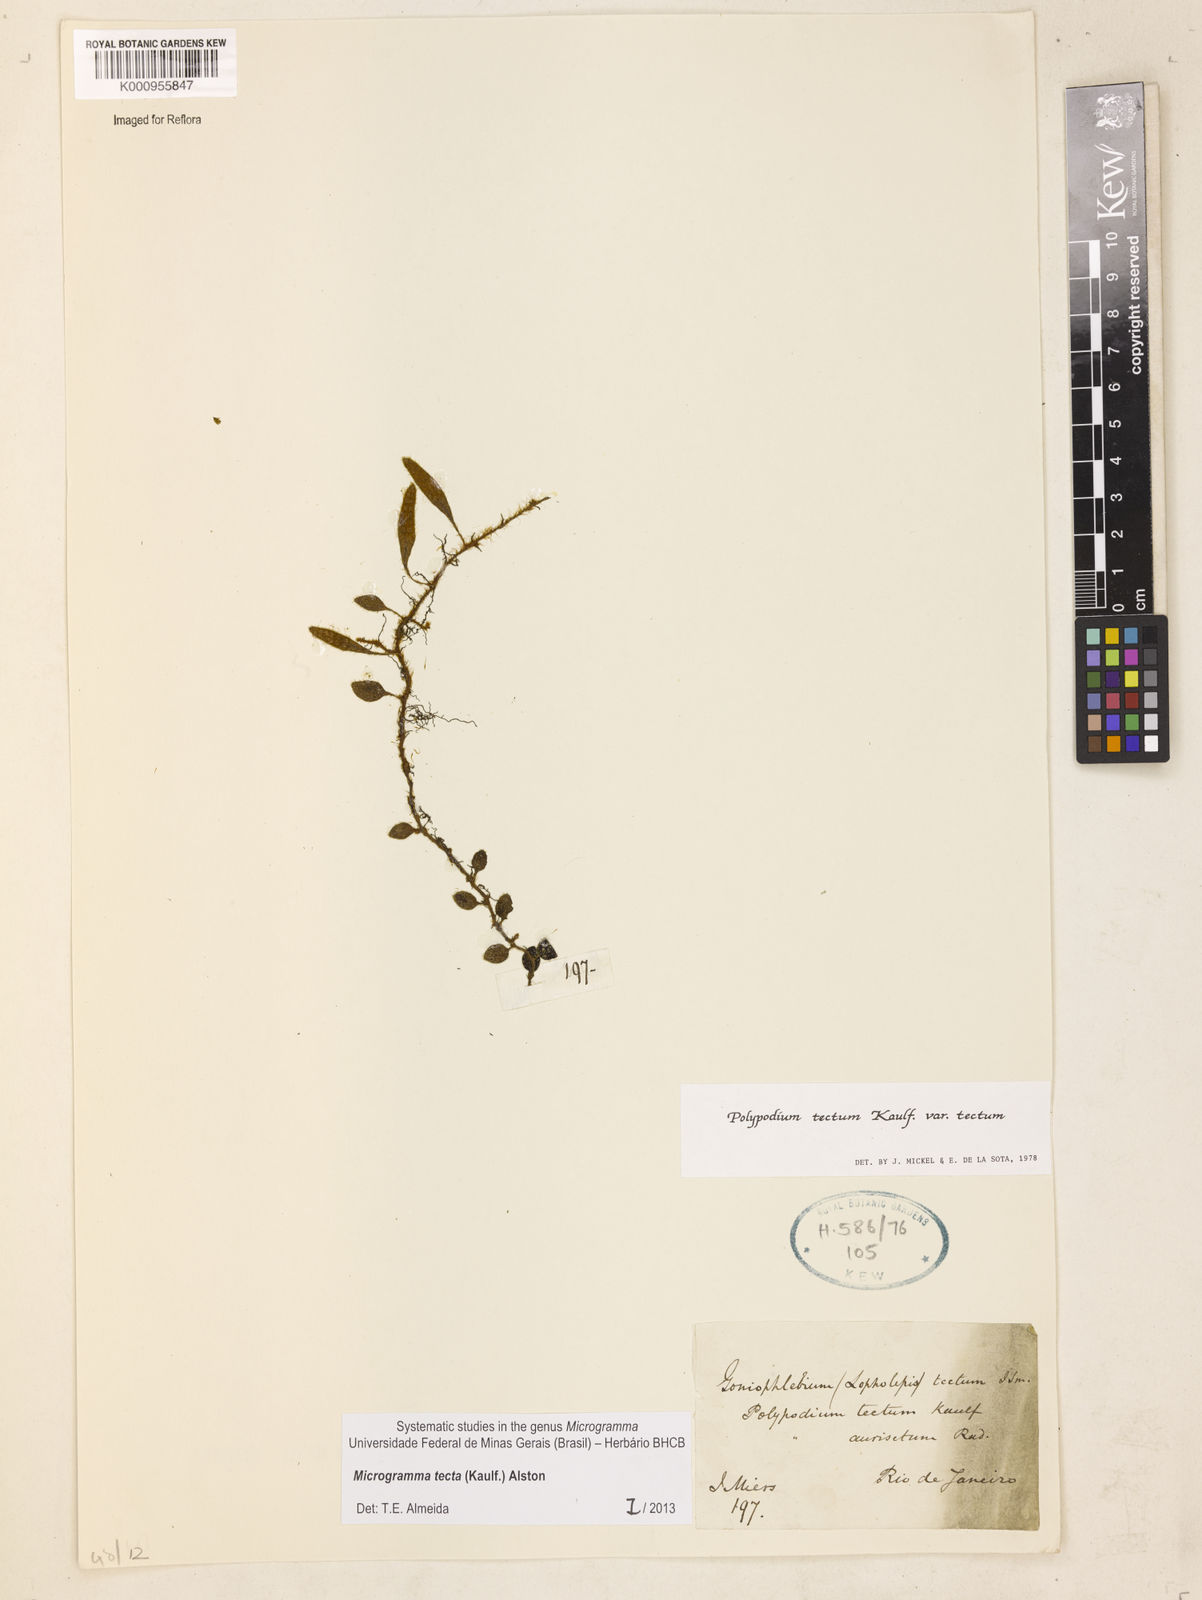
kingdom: Plantae
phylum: Tracheophyta
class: Polypodiopsida
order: Polypodiales
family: Polypodiaceae
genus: Microgramma
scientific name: Microgramma tecta
